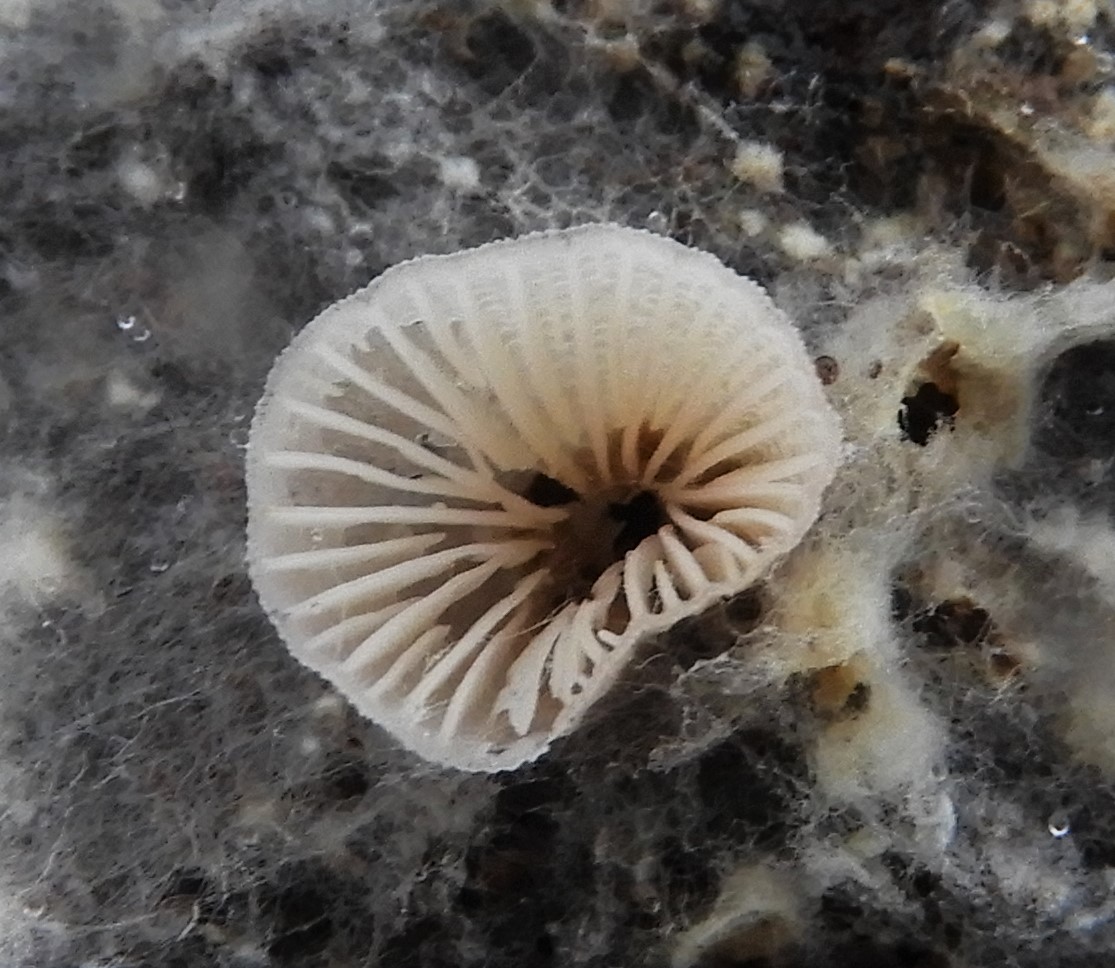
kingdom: Fungi
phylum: Basidiomycota
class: Agaricomycetes
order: Agaricales
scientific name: Agaricales
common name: champignonordenen
